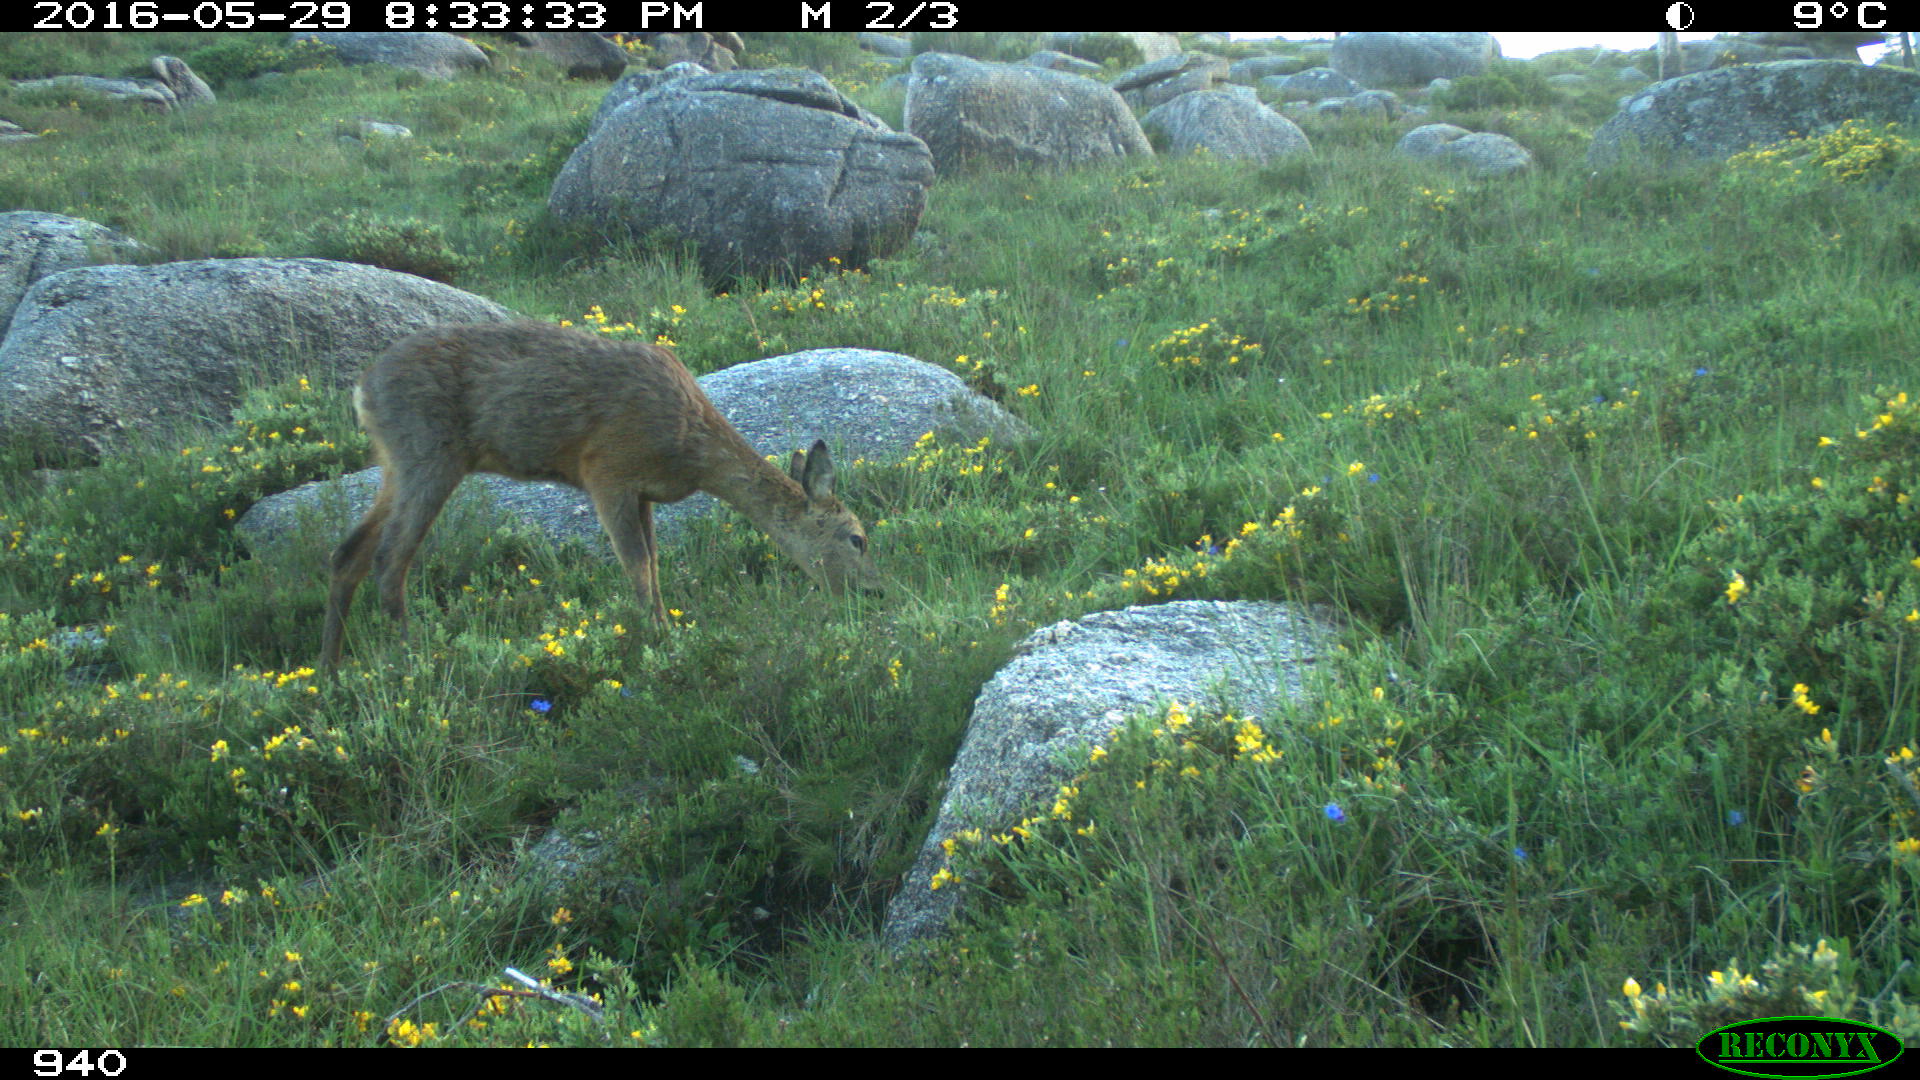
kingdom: Animalia
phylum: Chordata
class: Mammalia
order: Artiodactyla
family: Cervidae
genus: Capreolus
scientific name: Capreolus capreolus
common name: Western roe deer
